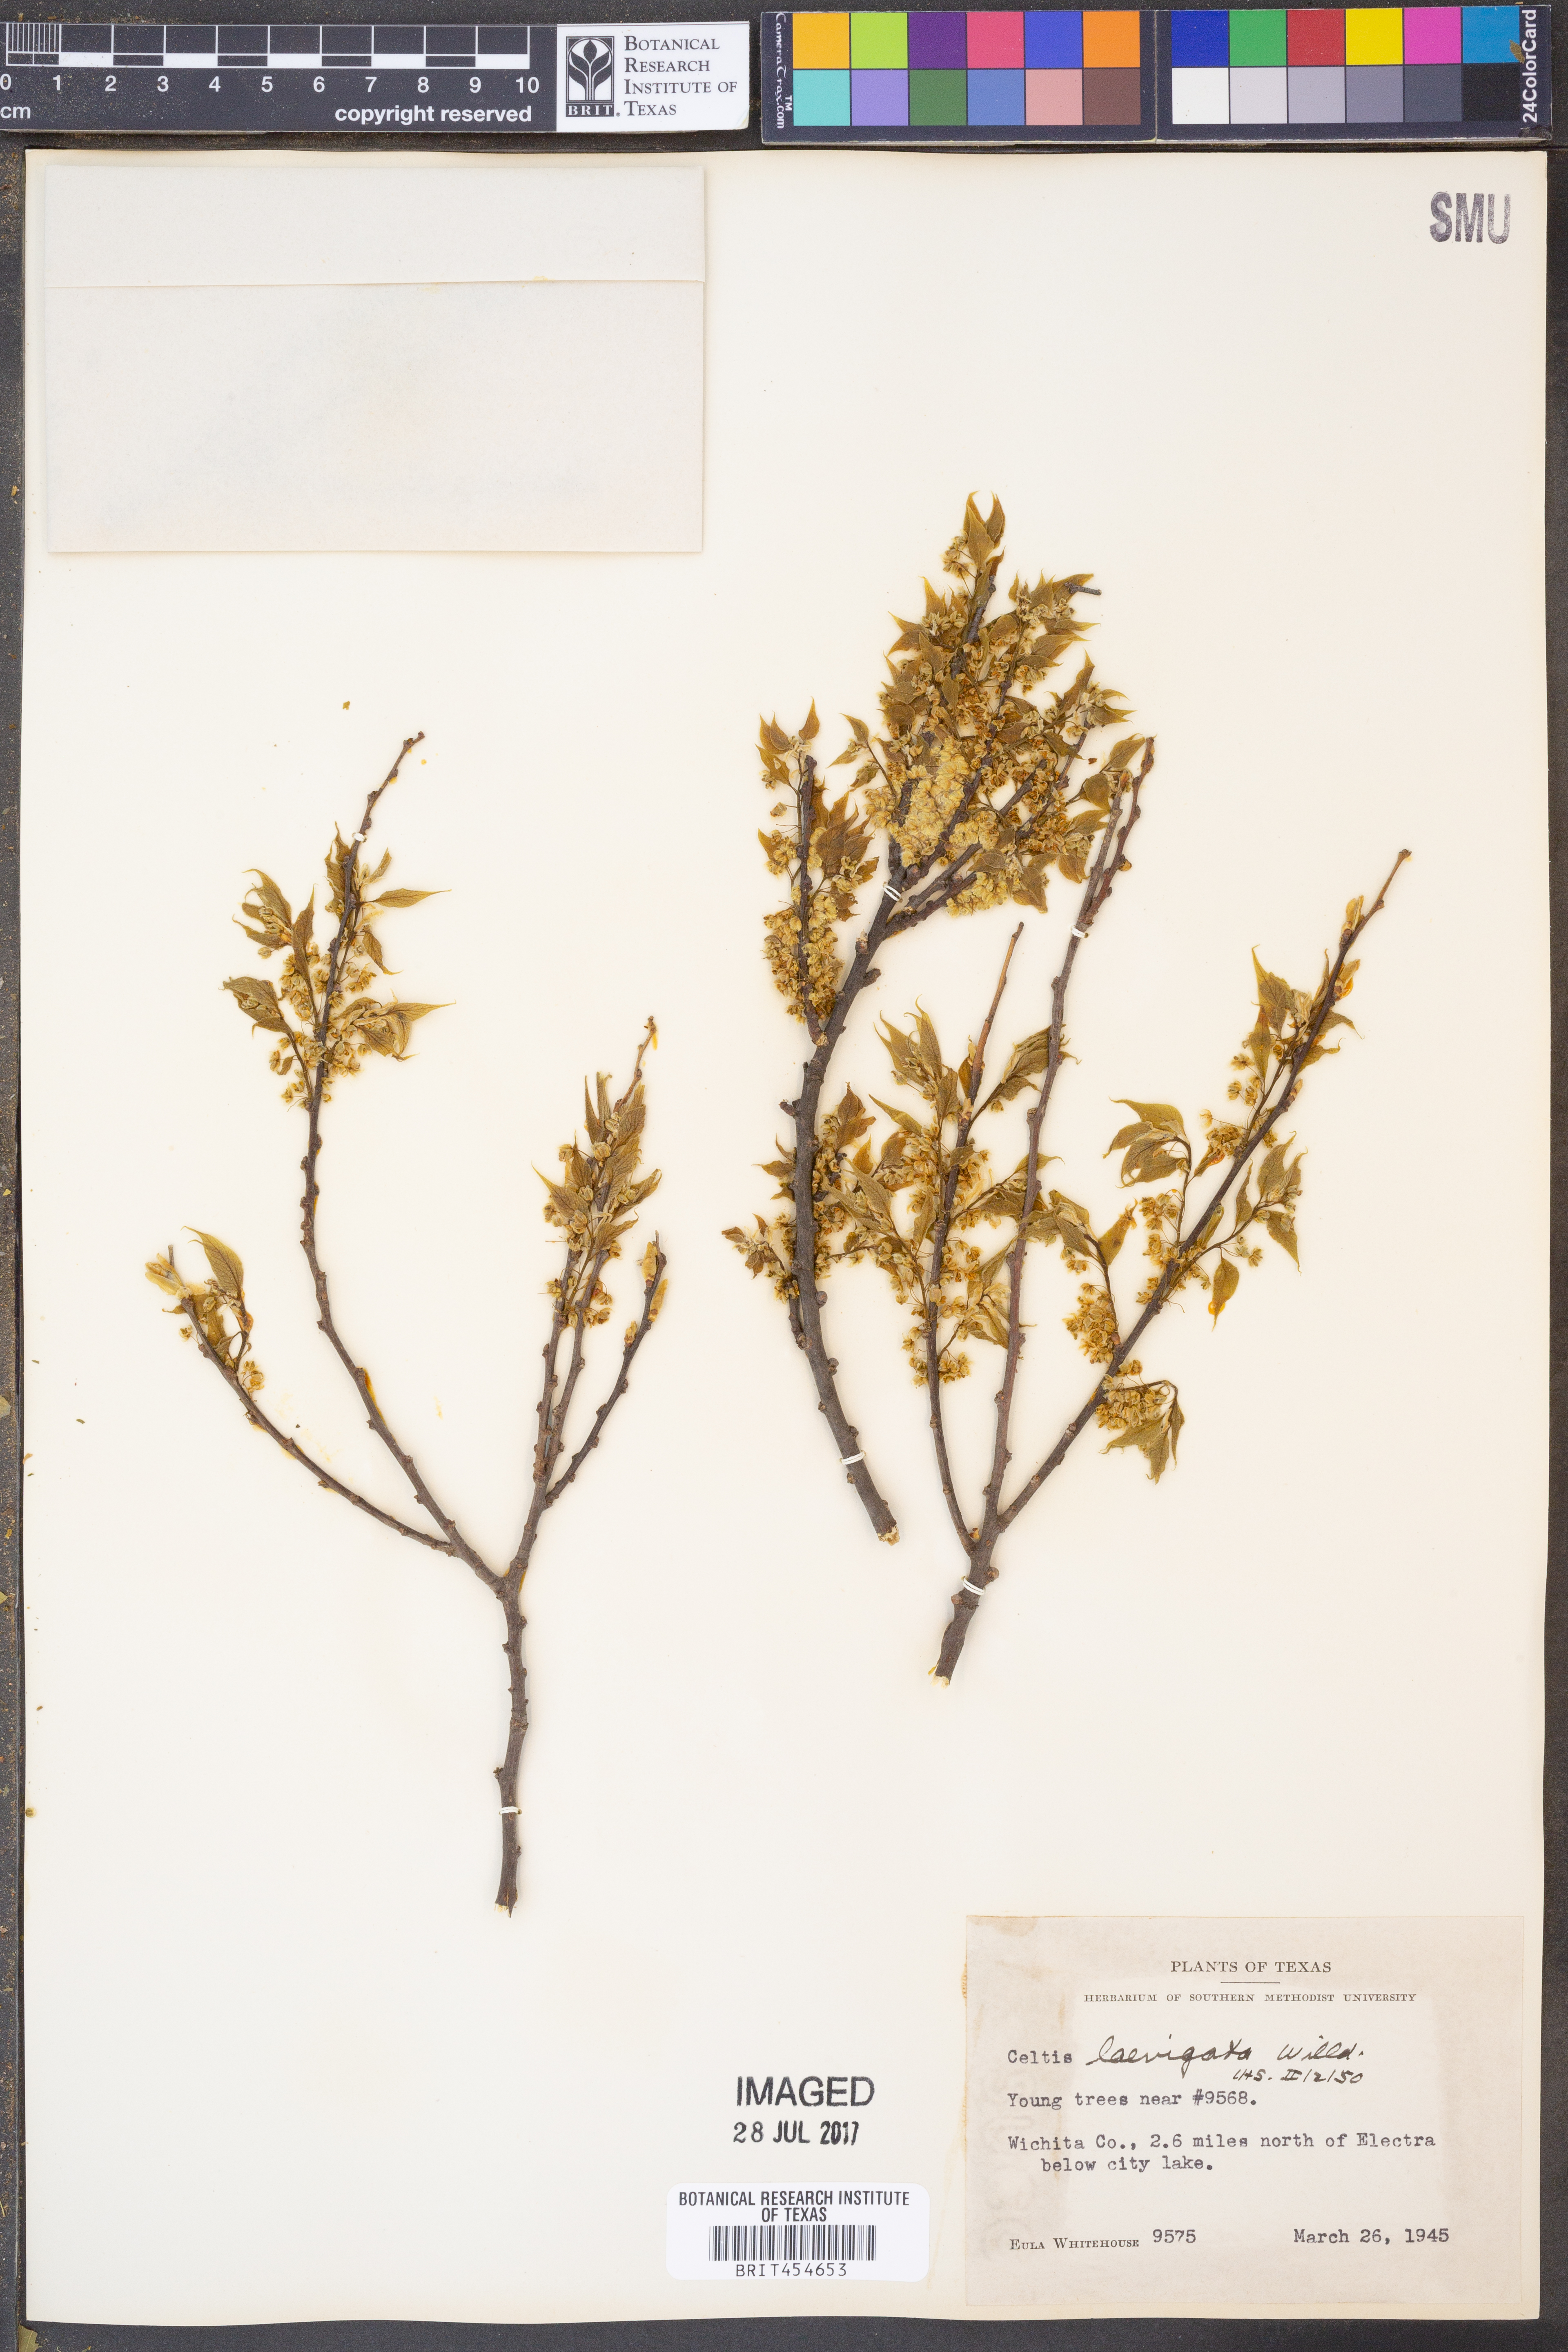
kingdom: Plantae
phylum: Tracheophyta
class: Magnoliopsida
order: Rosales
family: Cannabaceae
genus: Celtis
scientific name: Celtis laevigata
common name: Sugarberry
